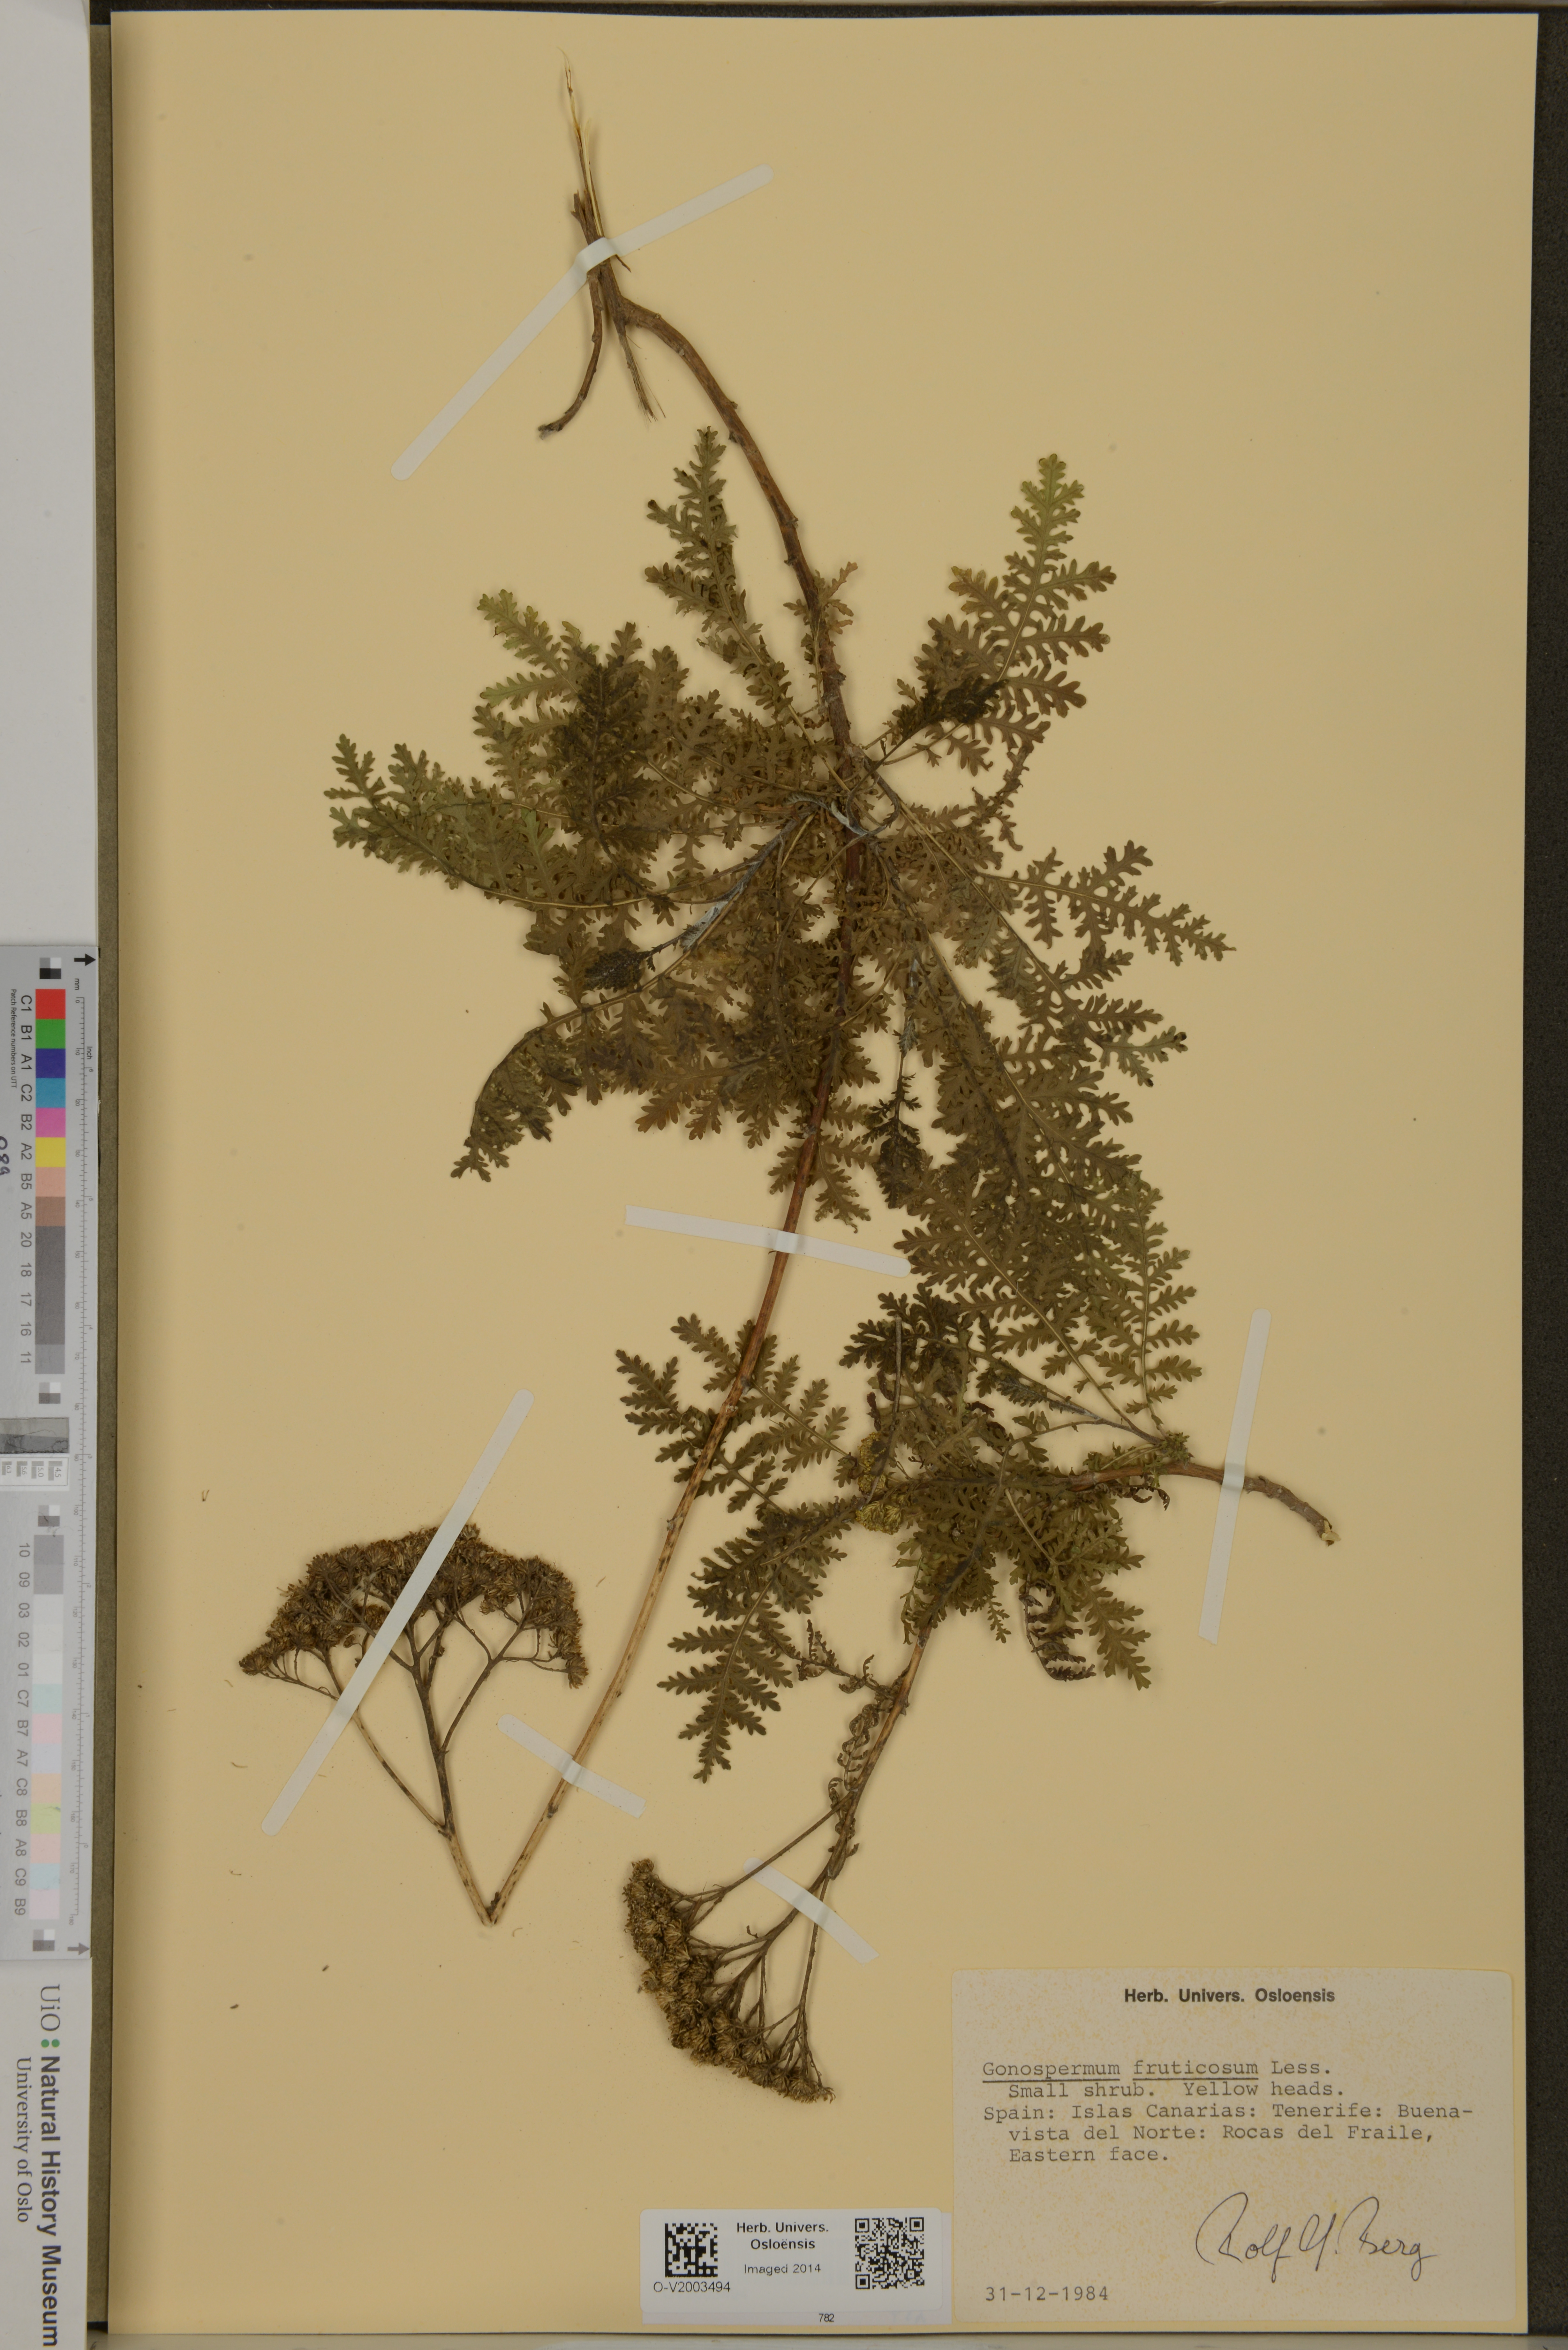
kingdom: Plantae
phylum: Tracheophyta
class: Magnoliopsida
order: Asterales
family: Asteraceae
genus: Gonospermum
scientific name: Gonospermum fruticosum
